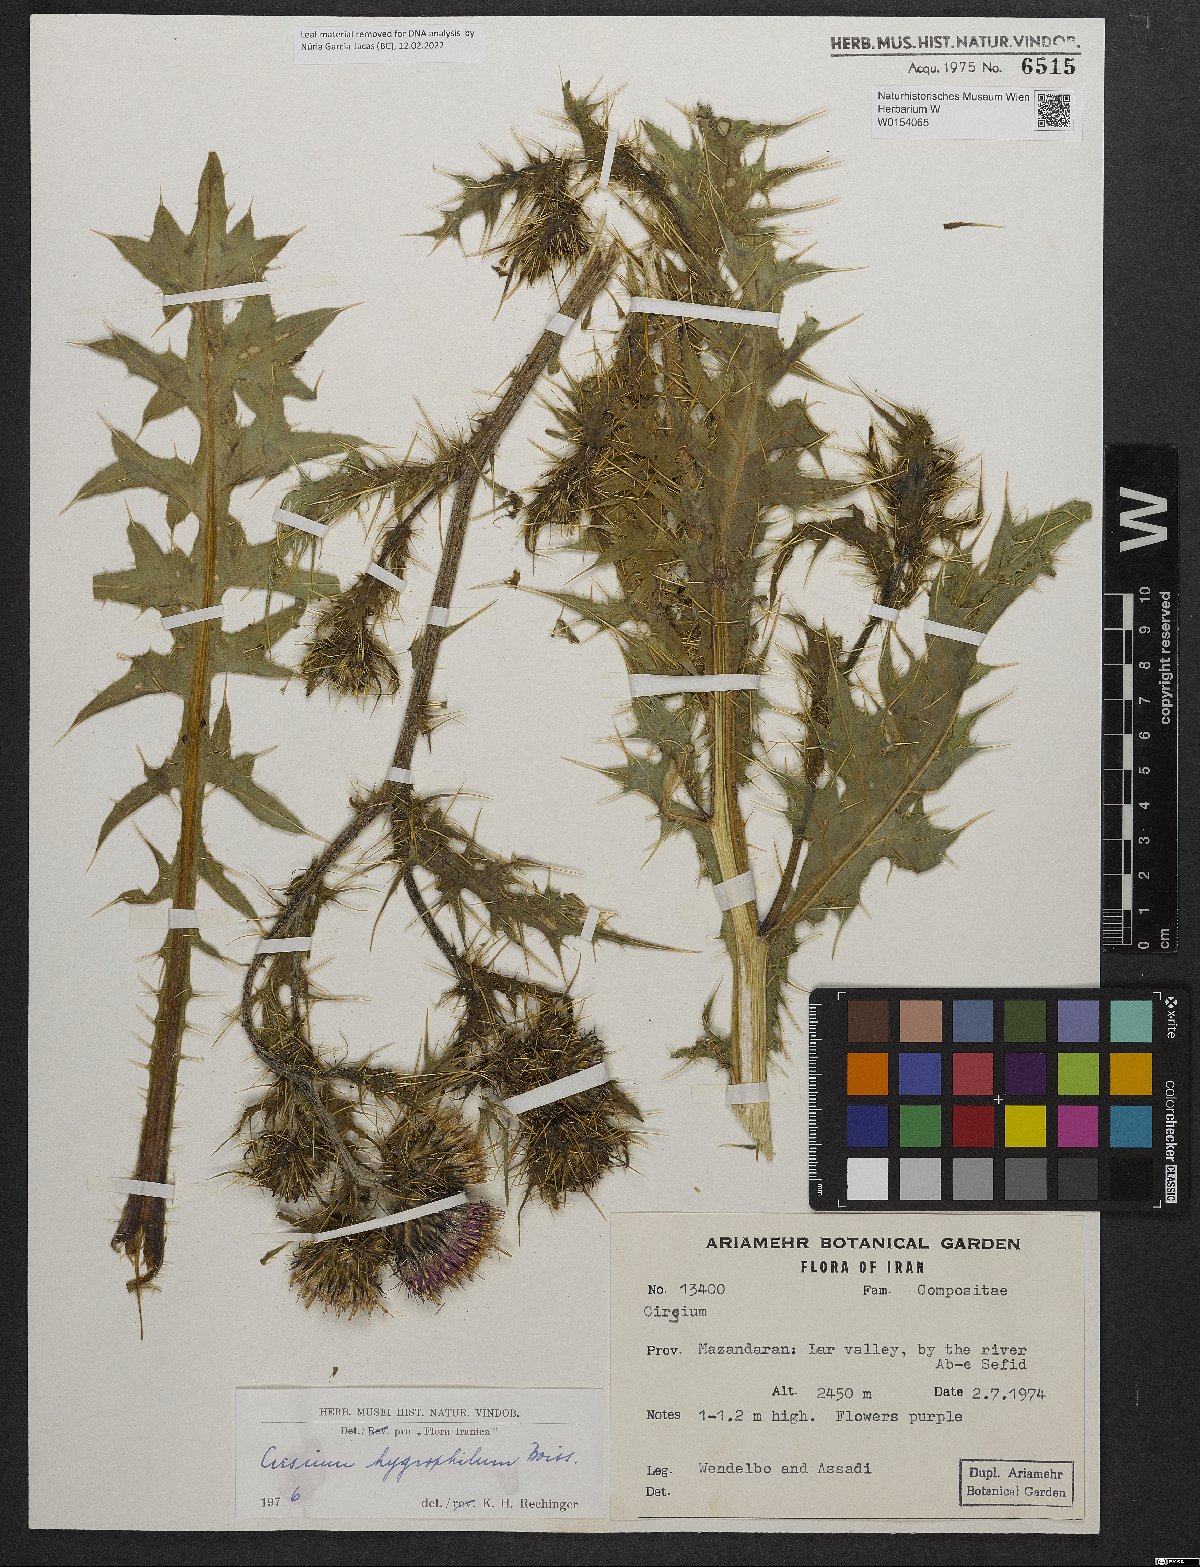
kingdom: Plantae
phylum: Tracheophyta
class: Magnoliopsida
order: Asterales
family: Asteraceae
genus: Cirsium
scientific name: Cirsium hygrophilum
